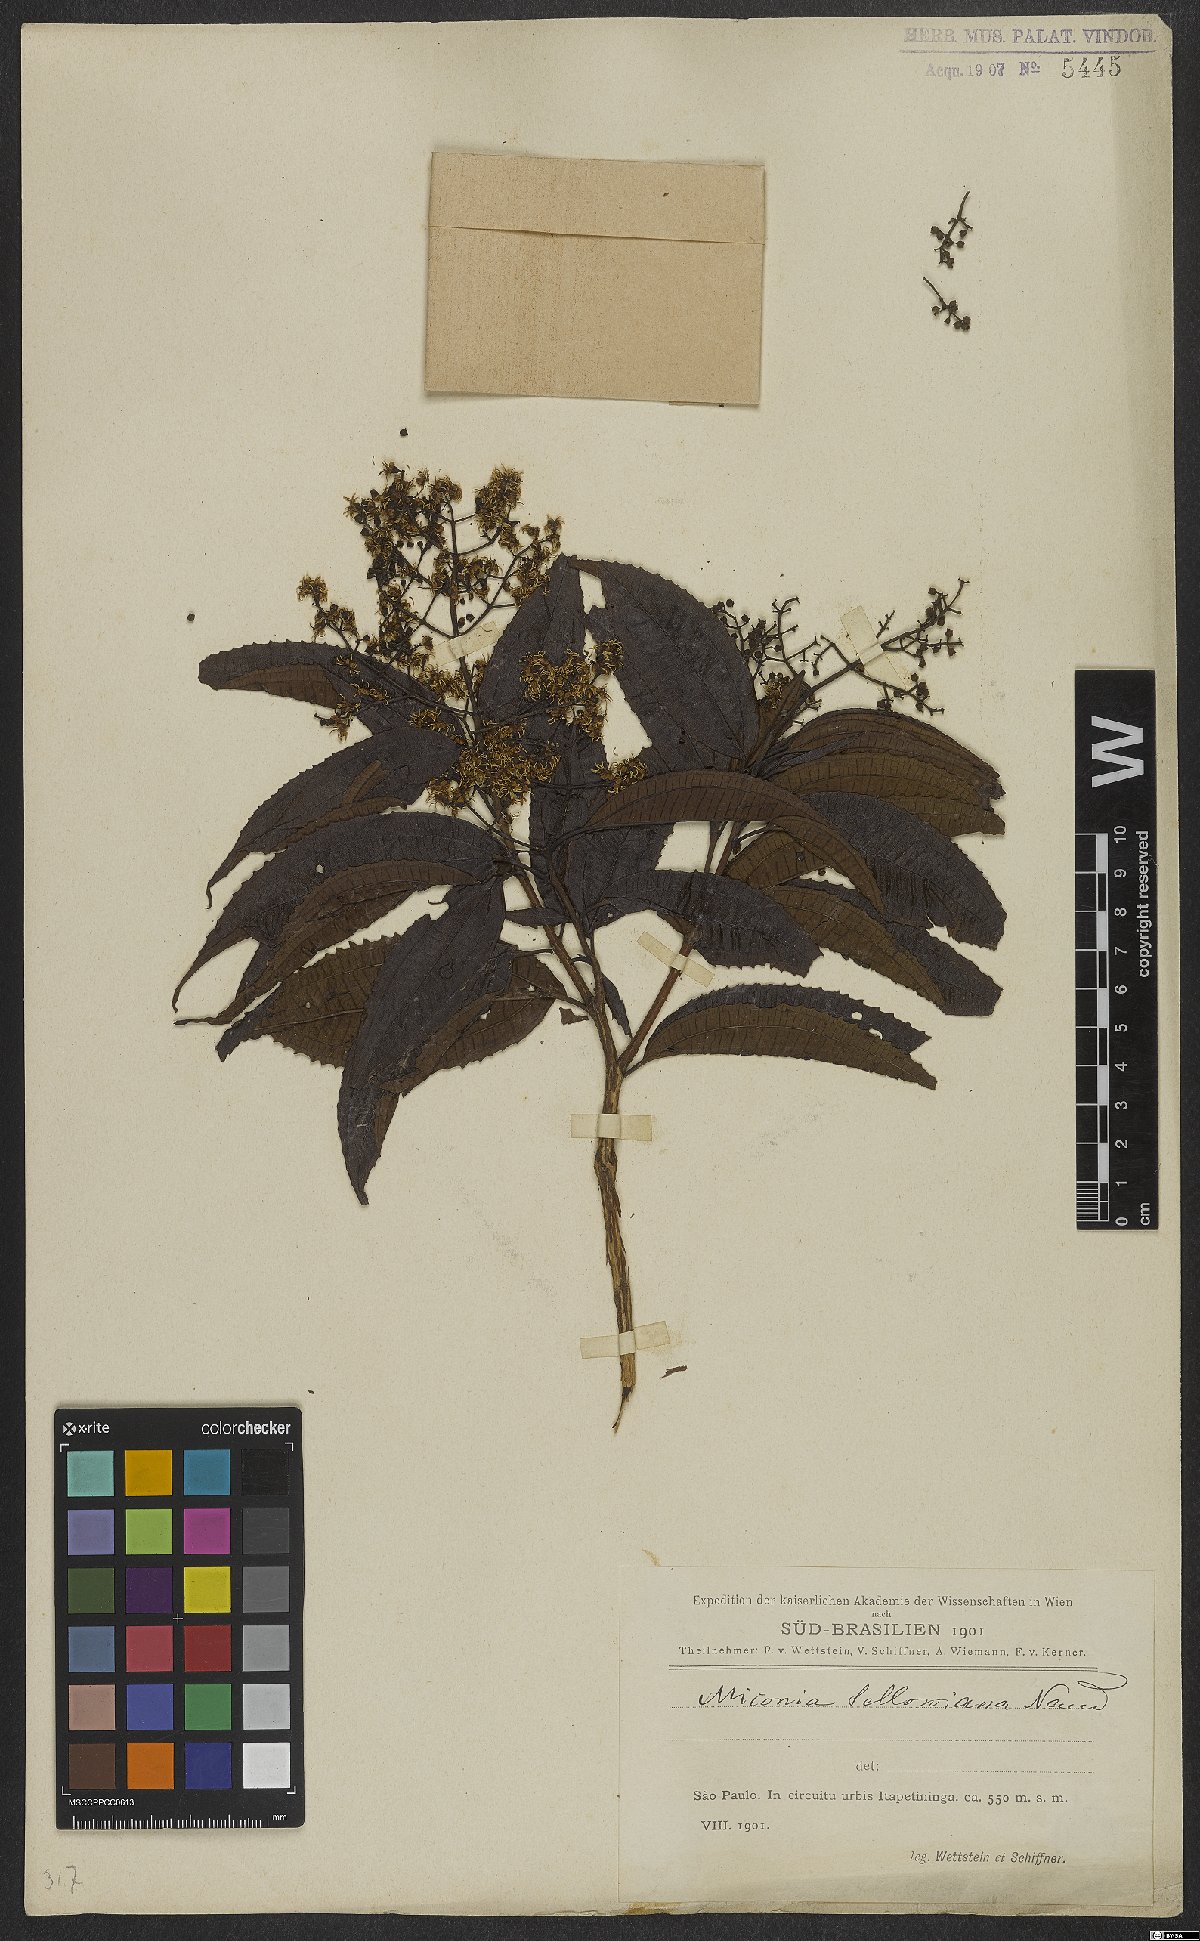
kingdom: Plantae
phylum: Tracheophyta
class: Magnoliopsida
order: Myrtales
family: Melastomataceae
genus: Miconia
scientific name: Miconia sellowiana
